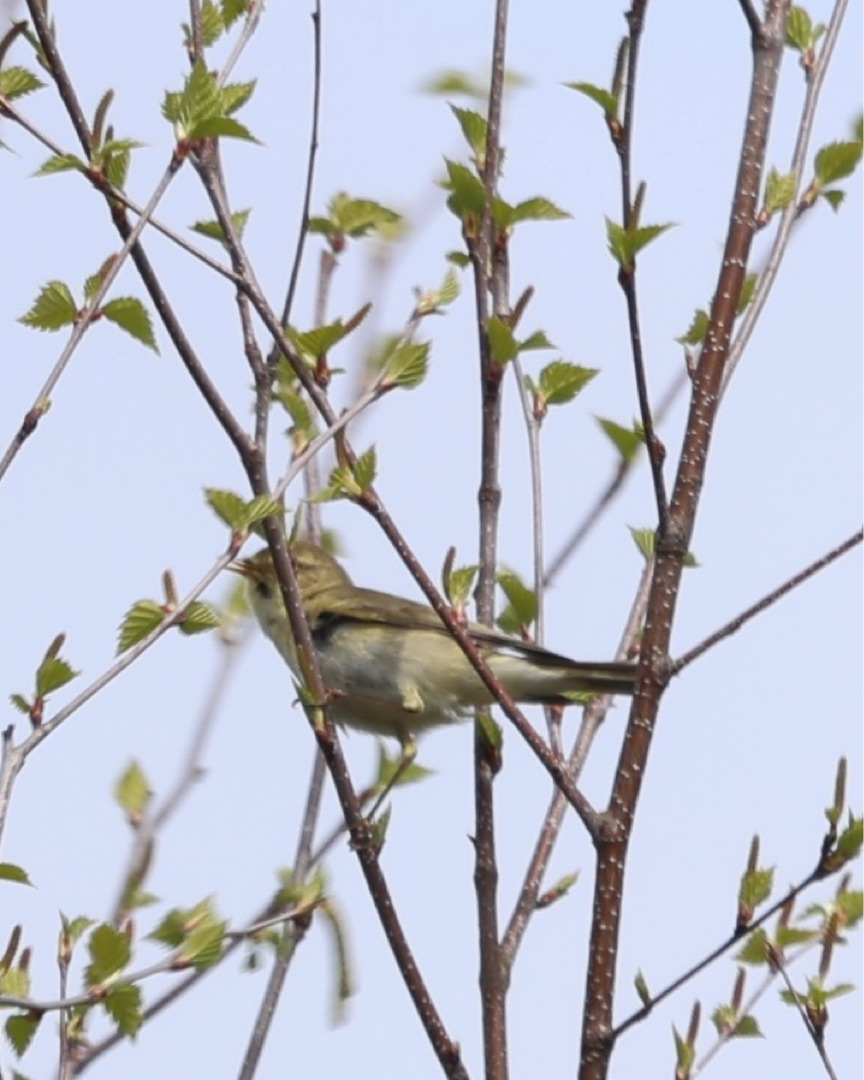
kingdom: Animalia
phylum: Chordata
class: Aves
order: Passeriformes
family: Phylloscopidae
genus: Phylloscopus
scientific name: Phylloscopus trochilus
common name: Løvsanger
